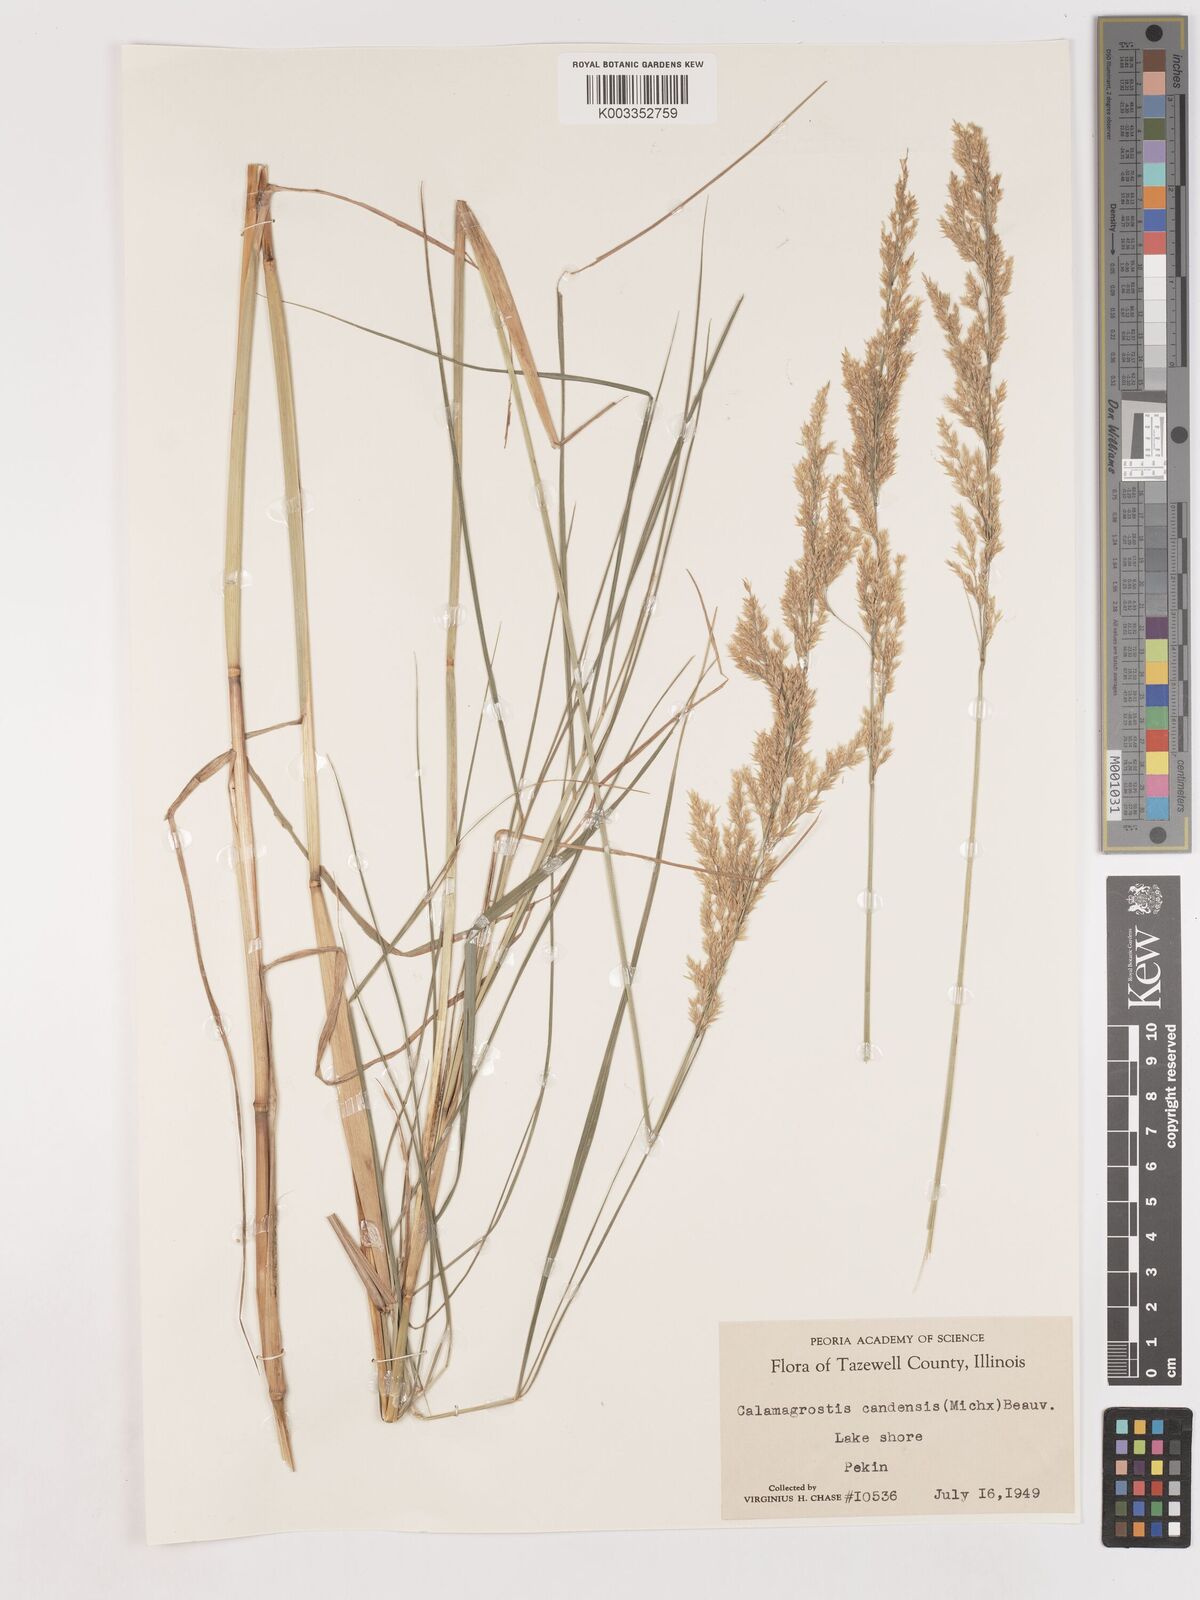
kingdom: Plantae
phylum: Tracheophyta
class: Liliopsida
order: Poales
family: Poaceae
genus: Calamagrostis
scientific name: Calamagrostis canadensis
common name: Canada bluejoint
